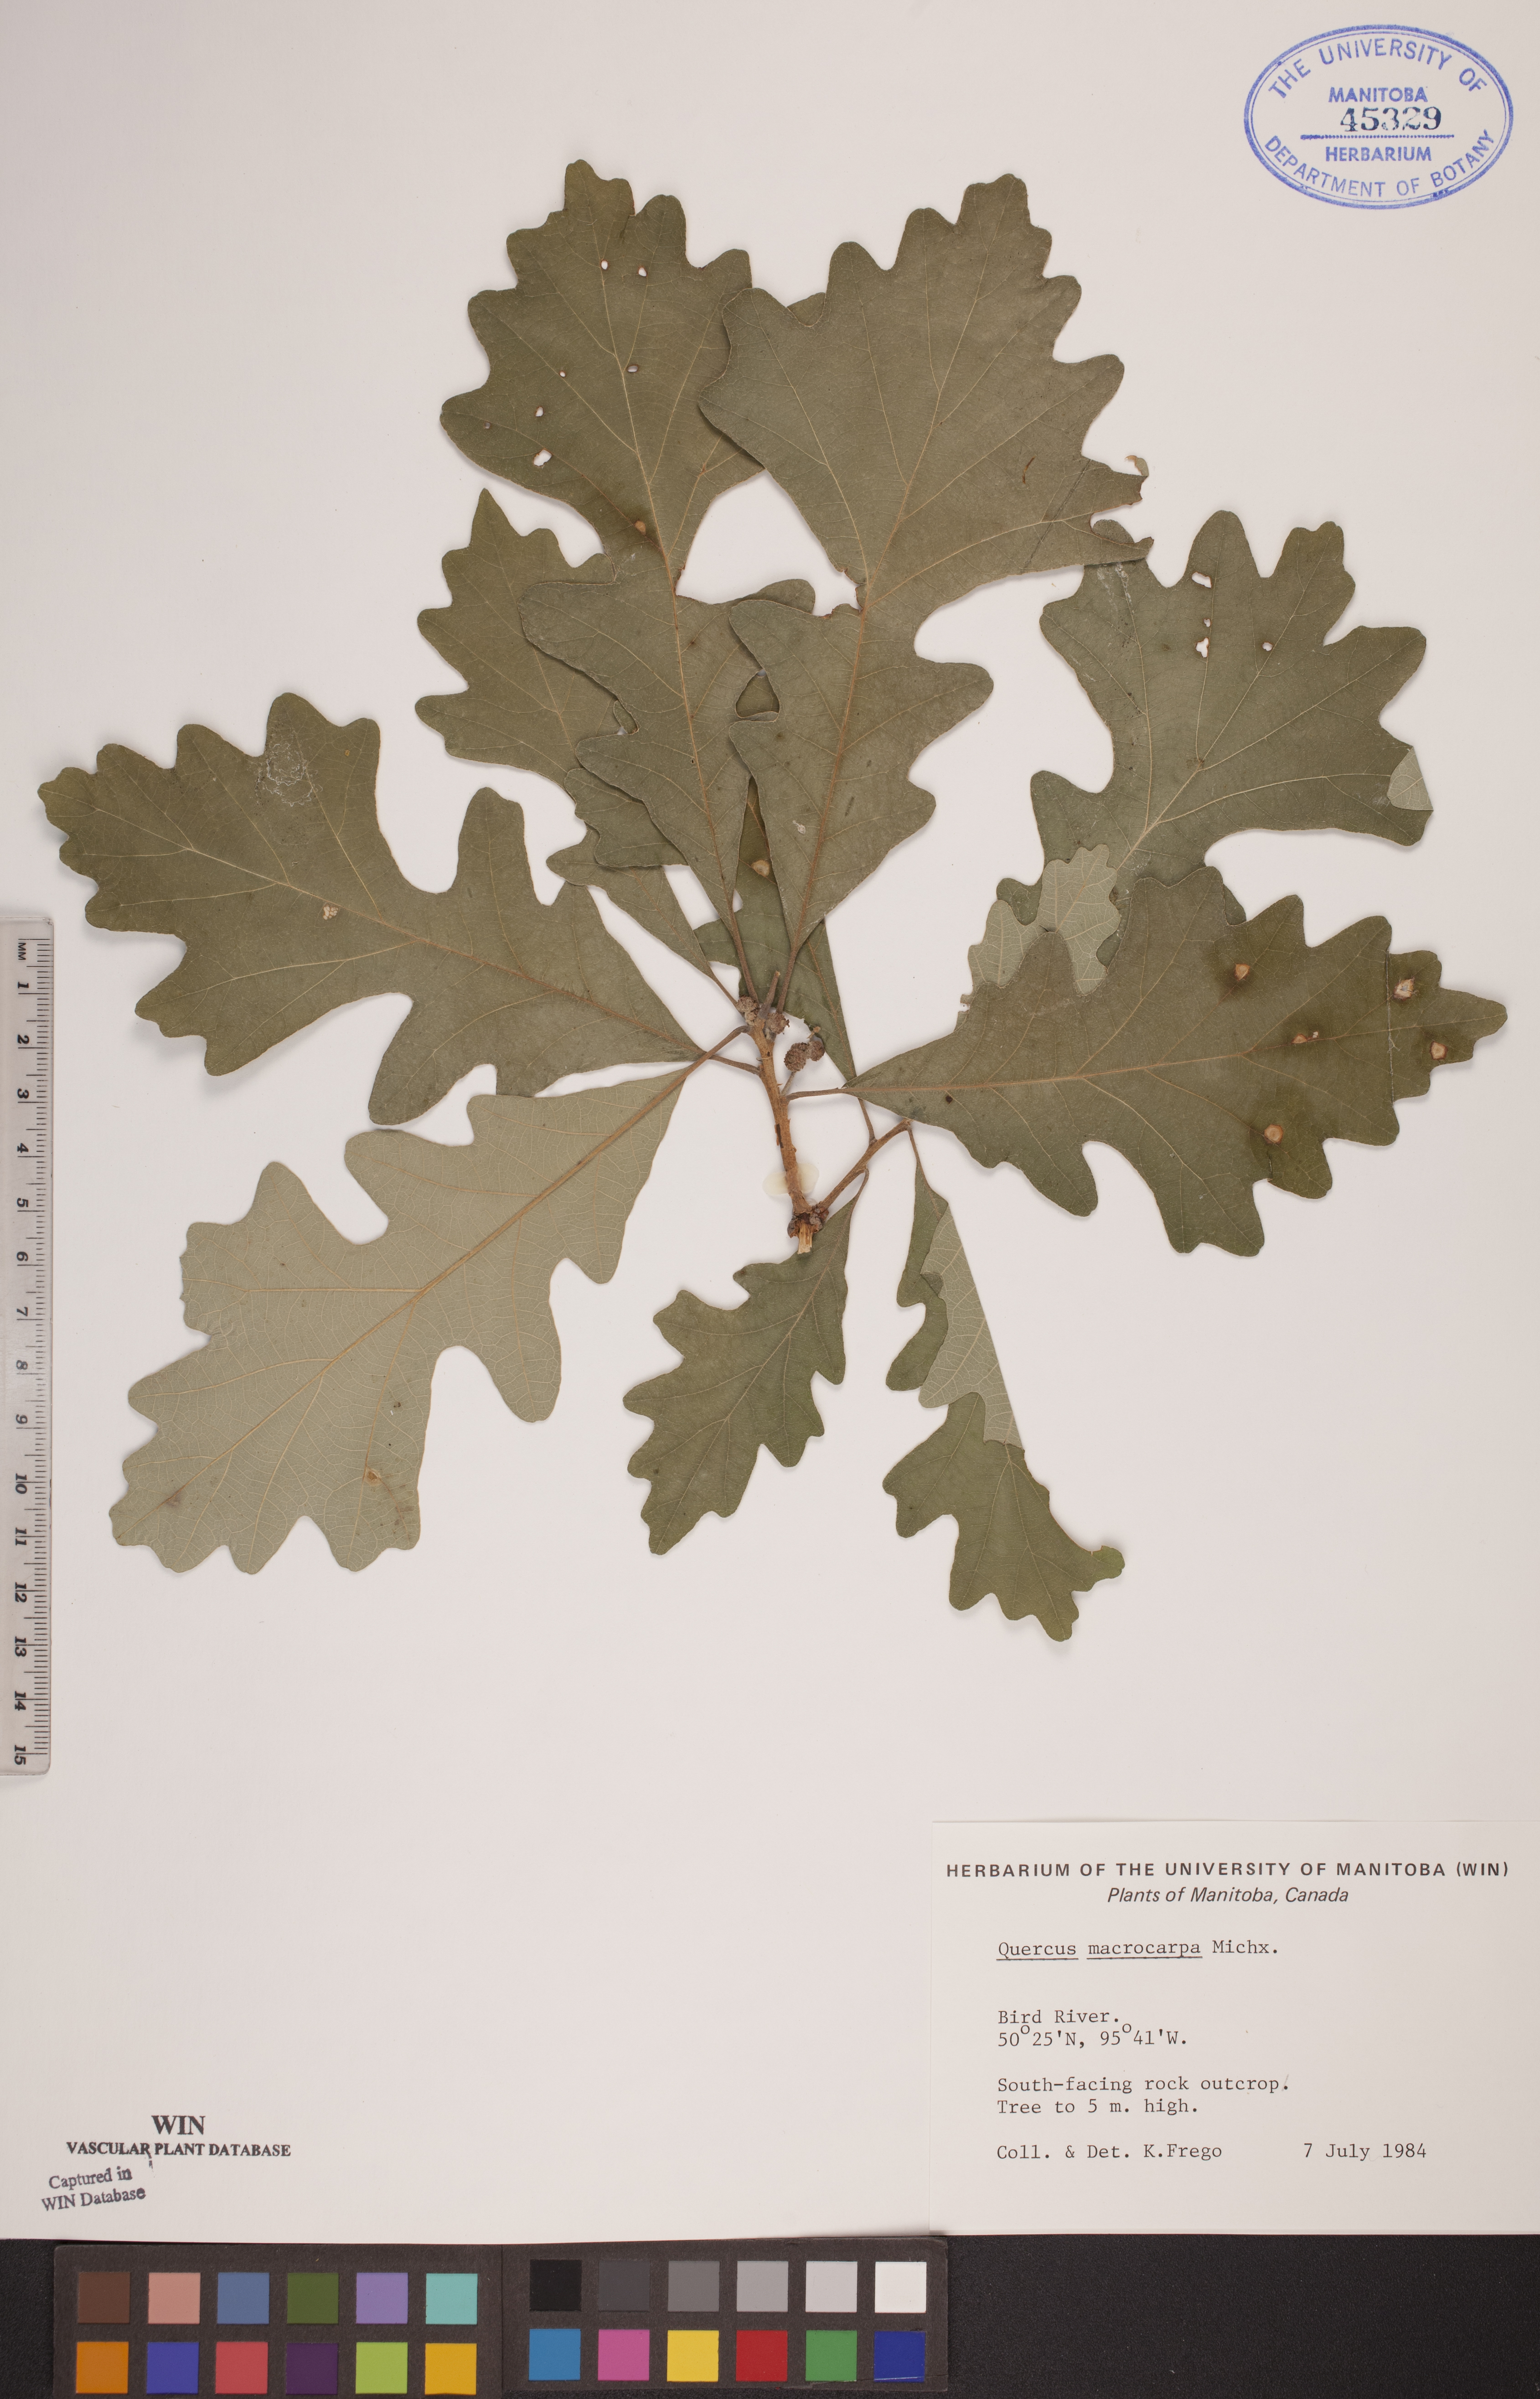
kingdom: Plantae
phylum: Tracheophyta
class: Magnoliopsida
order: Fagales
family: Fagaceae
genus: Quercus
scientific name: Quercus macrocarpa
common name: Bur oak
